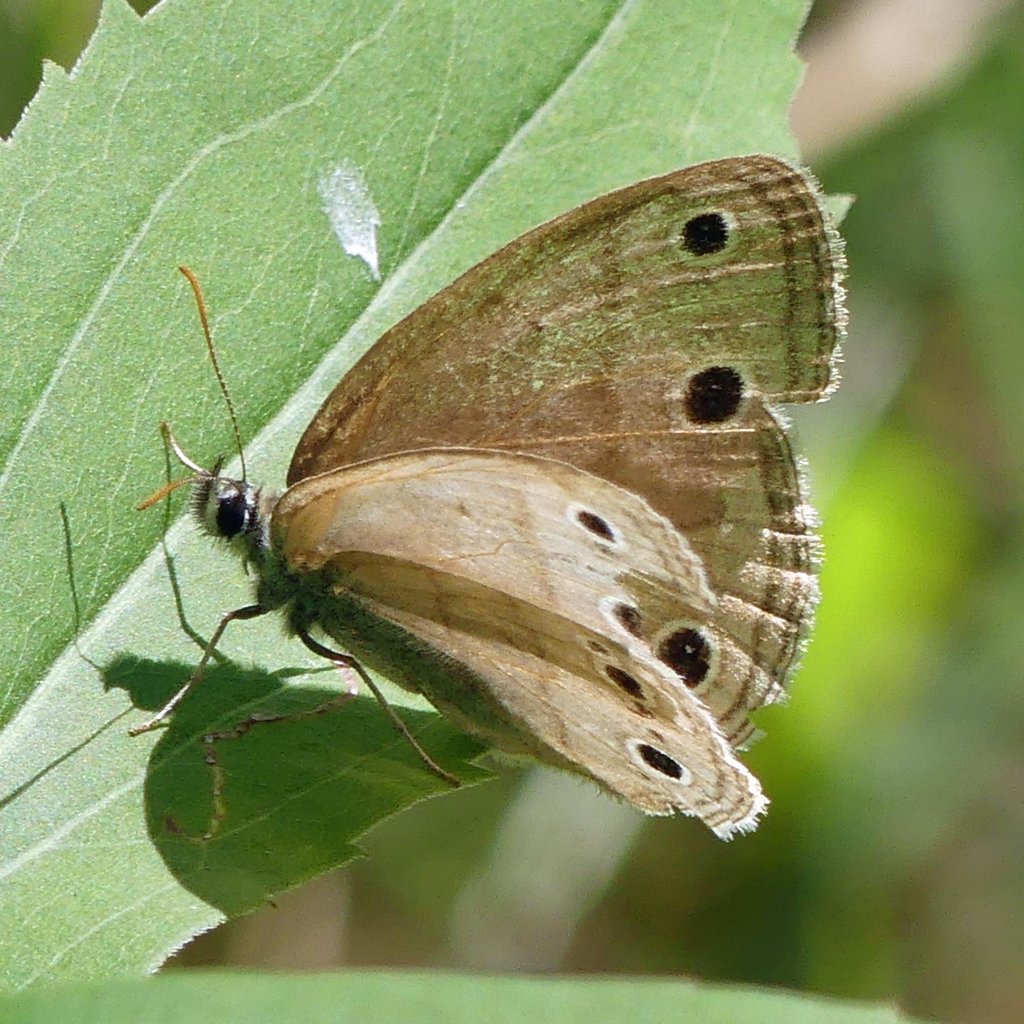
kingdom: Animalia
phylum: Arthropoda
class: Insecta
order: Lepidoptera
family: Nymphalidae
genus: Euptychia
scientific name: Euptychia cymela
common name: Little Wood Satyr
